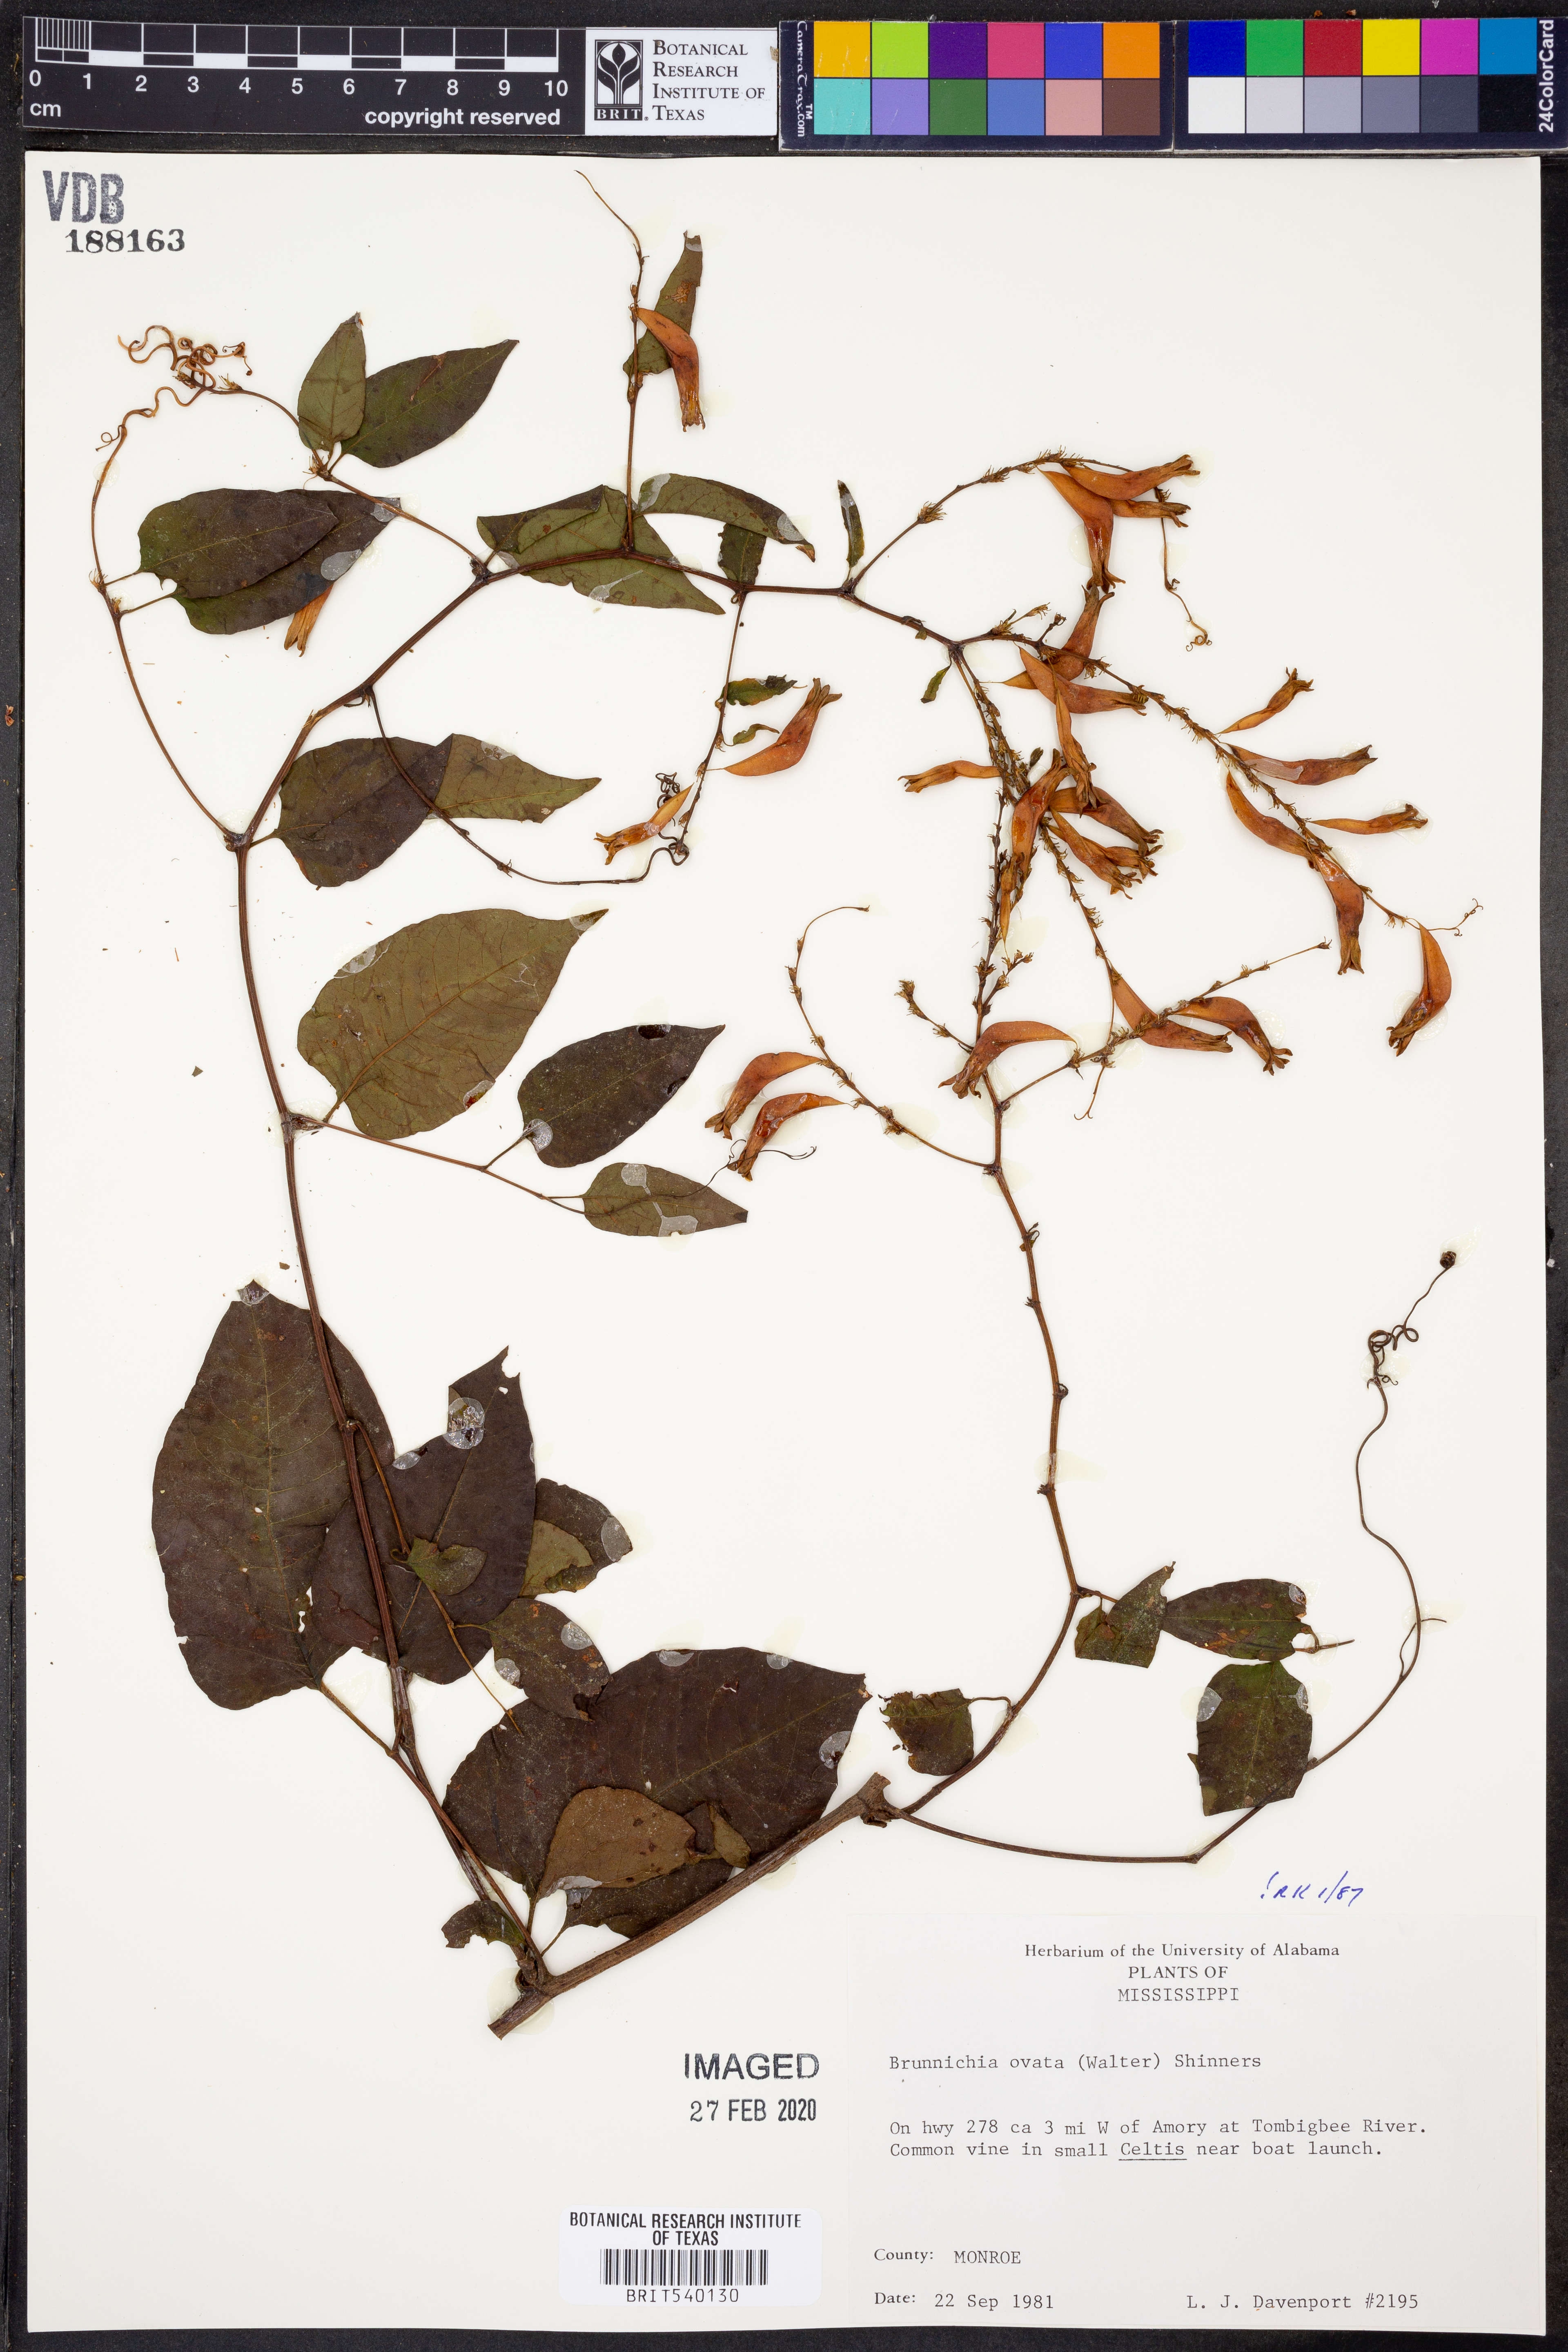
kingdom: Plantae
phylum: Tracheophyta
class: Magnoliopsida
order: Caryophyllales
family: Polygonaceae
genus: Brunnichia
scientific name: Brunnichia ovata
